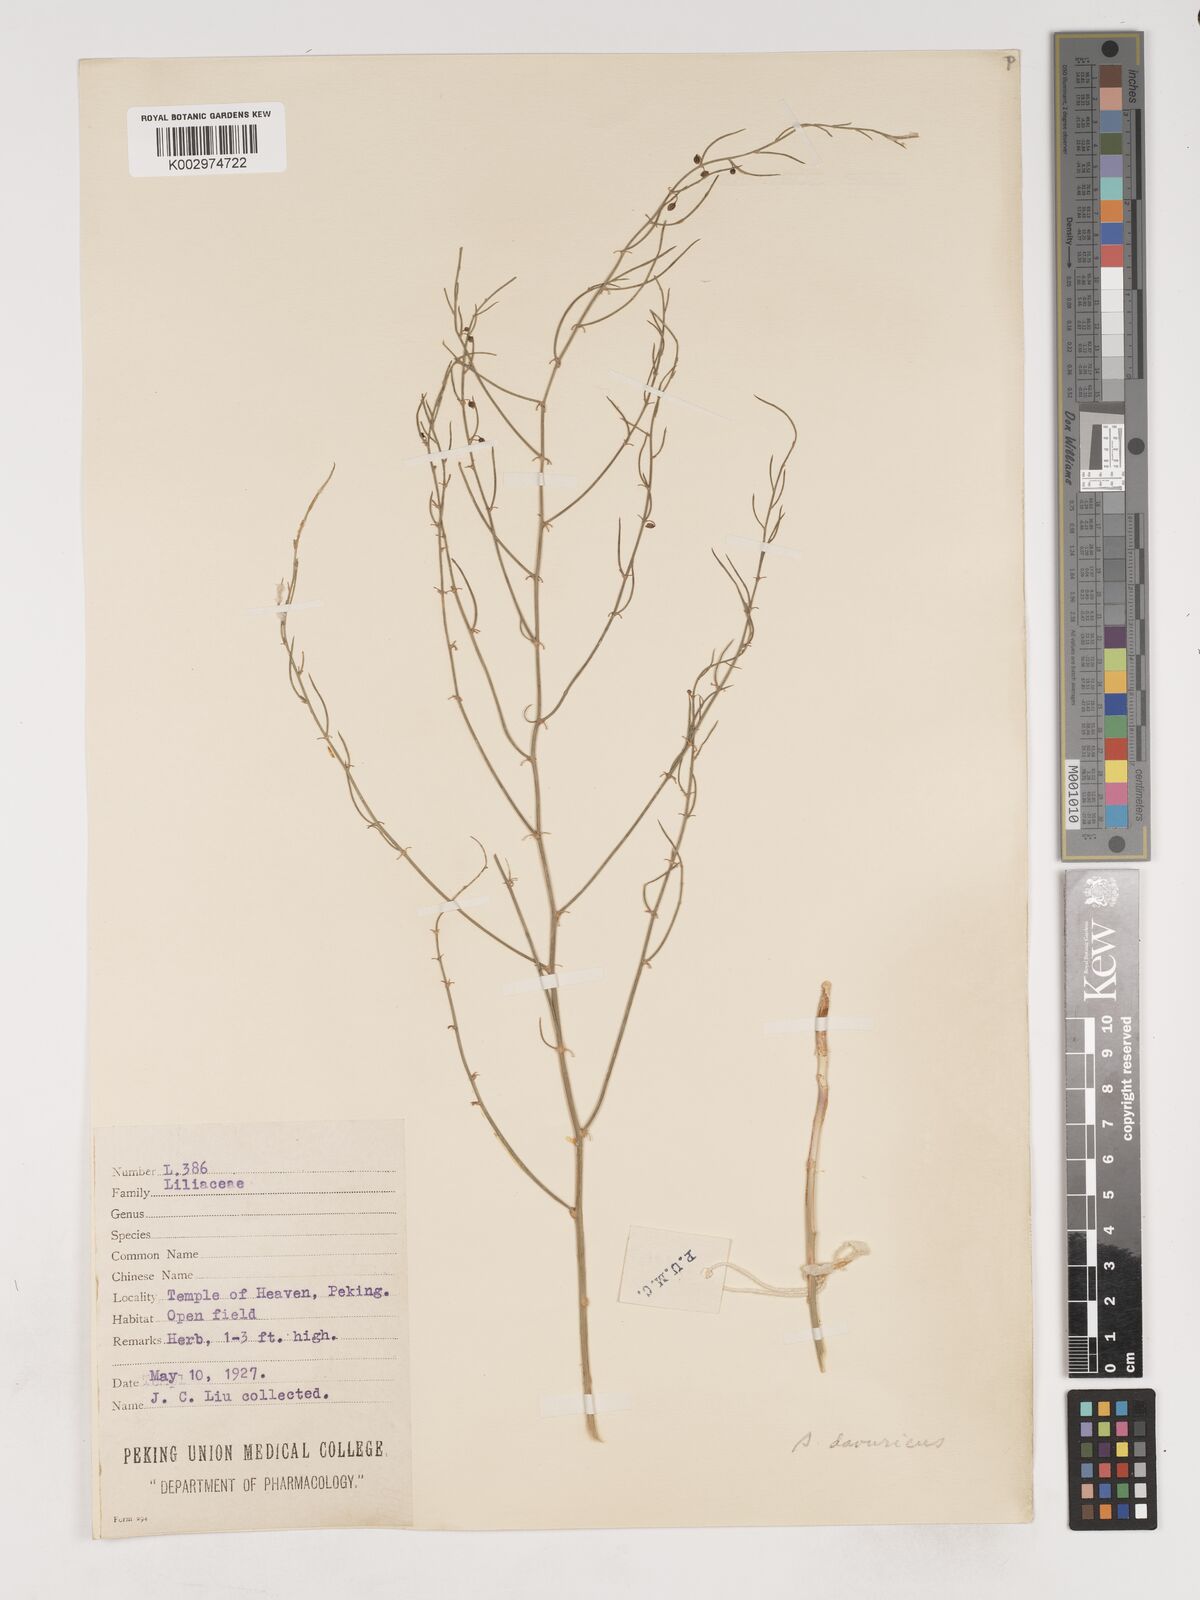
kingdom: Plantae
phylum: Tracheophyta
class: Liliopsida
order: Asparagales
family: Asparagaceae
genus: Asparagus
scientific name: Asparagus dauricus
